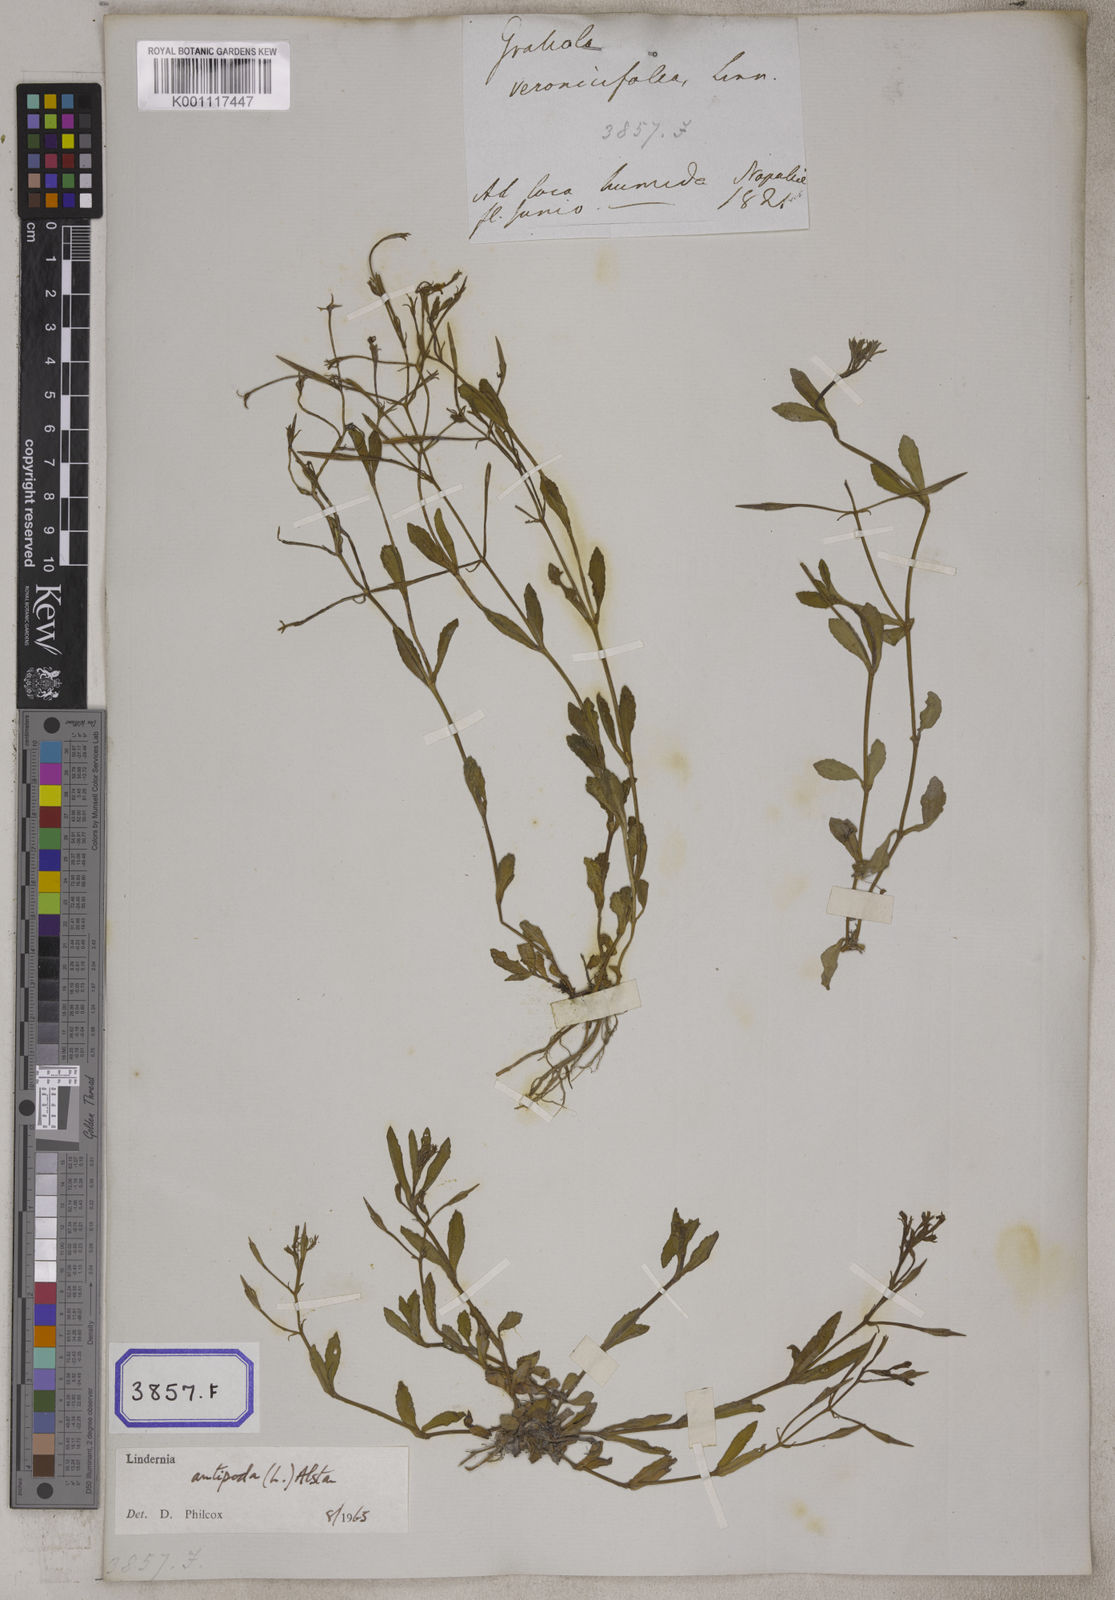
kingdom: Plantae
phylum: Tracheophyta
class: Magnoliopsida
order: Lamiales
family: Linderniaceae
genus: Bonnaya
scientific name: Bonnaya veronicifolia
